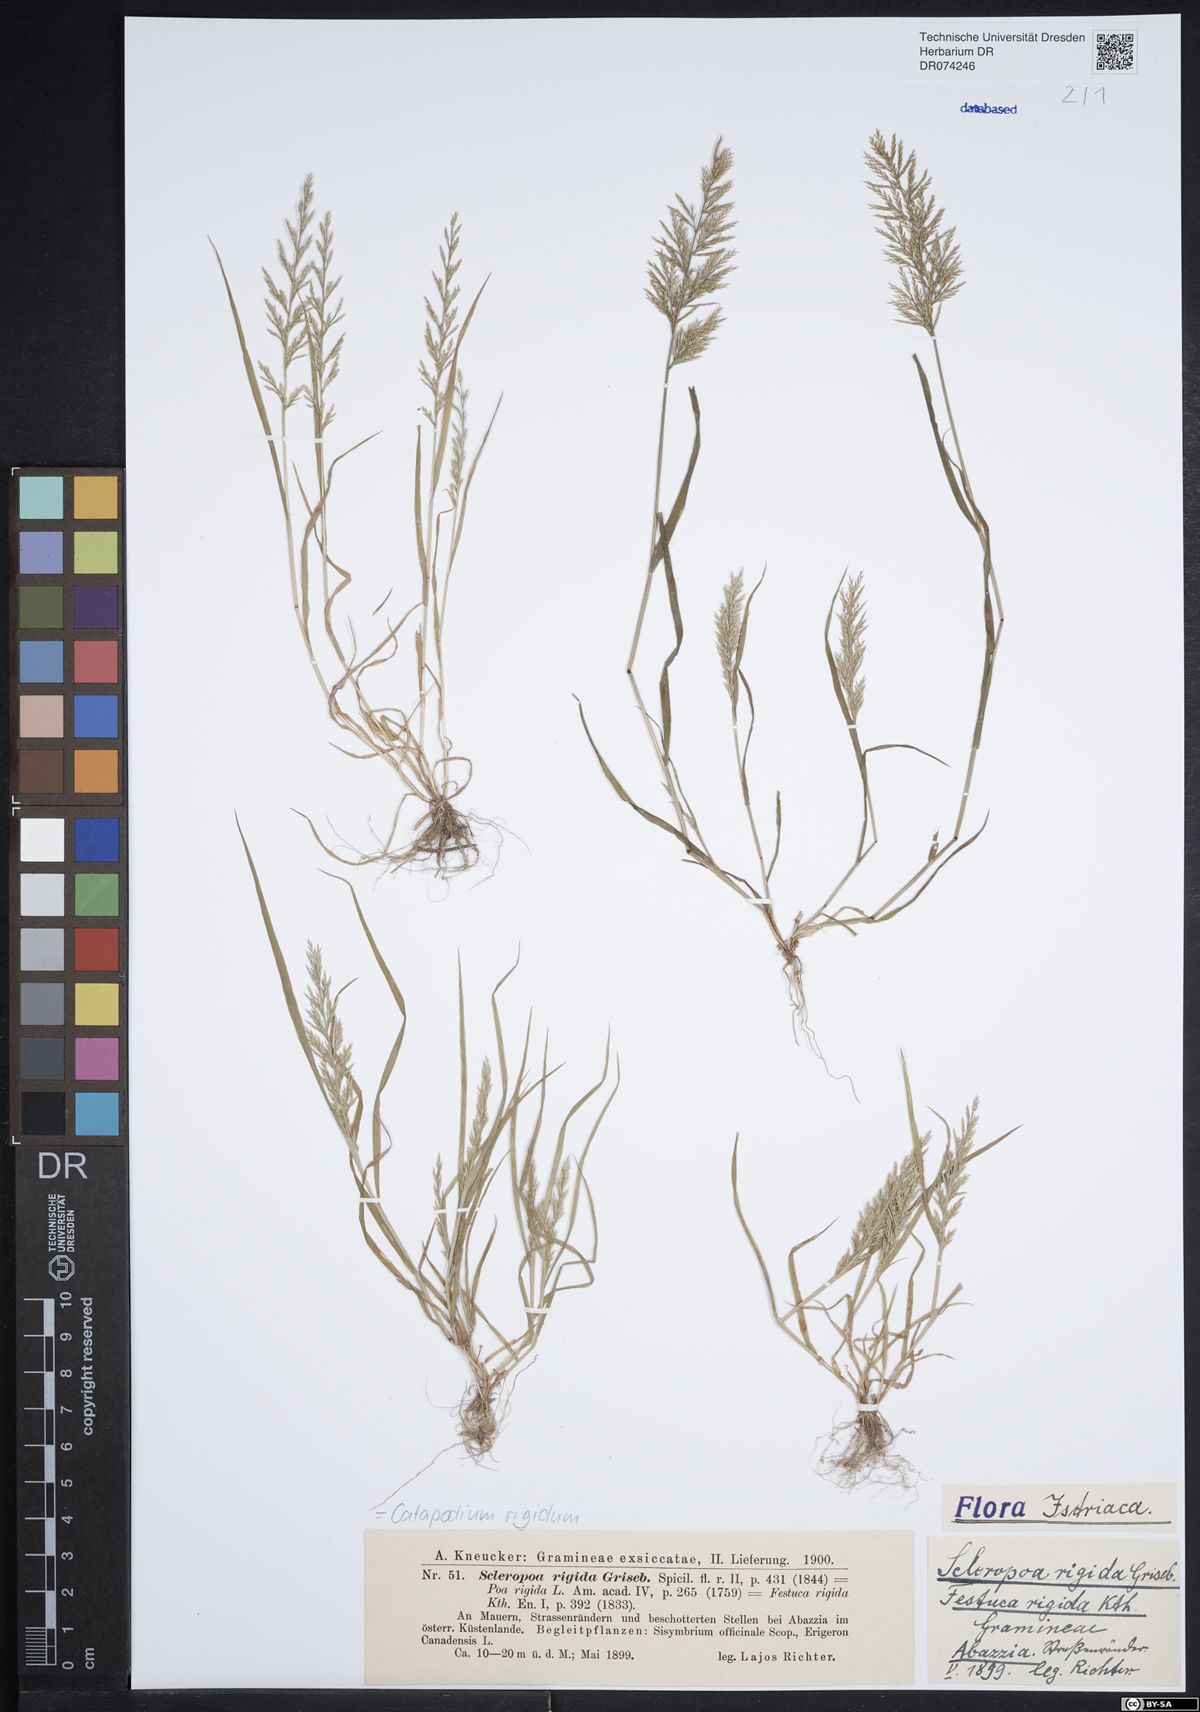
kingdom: Plantae
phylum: Tracheophyta
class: Liliopsida
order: Poales
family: Poaceae
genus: Catapodium
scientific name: Catapodium rigidum
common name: Fern-grass
